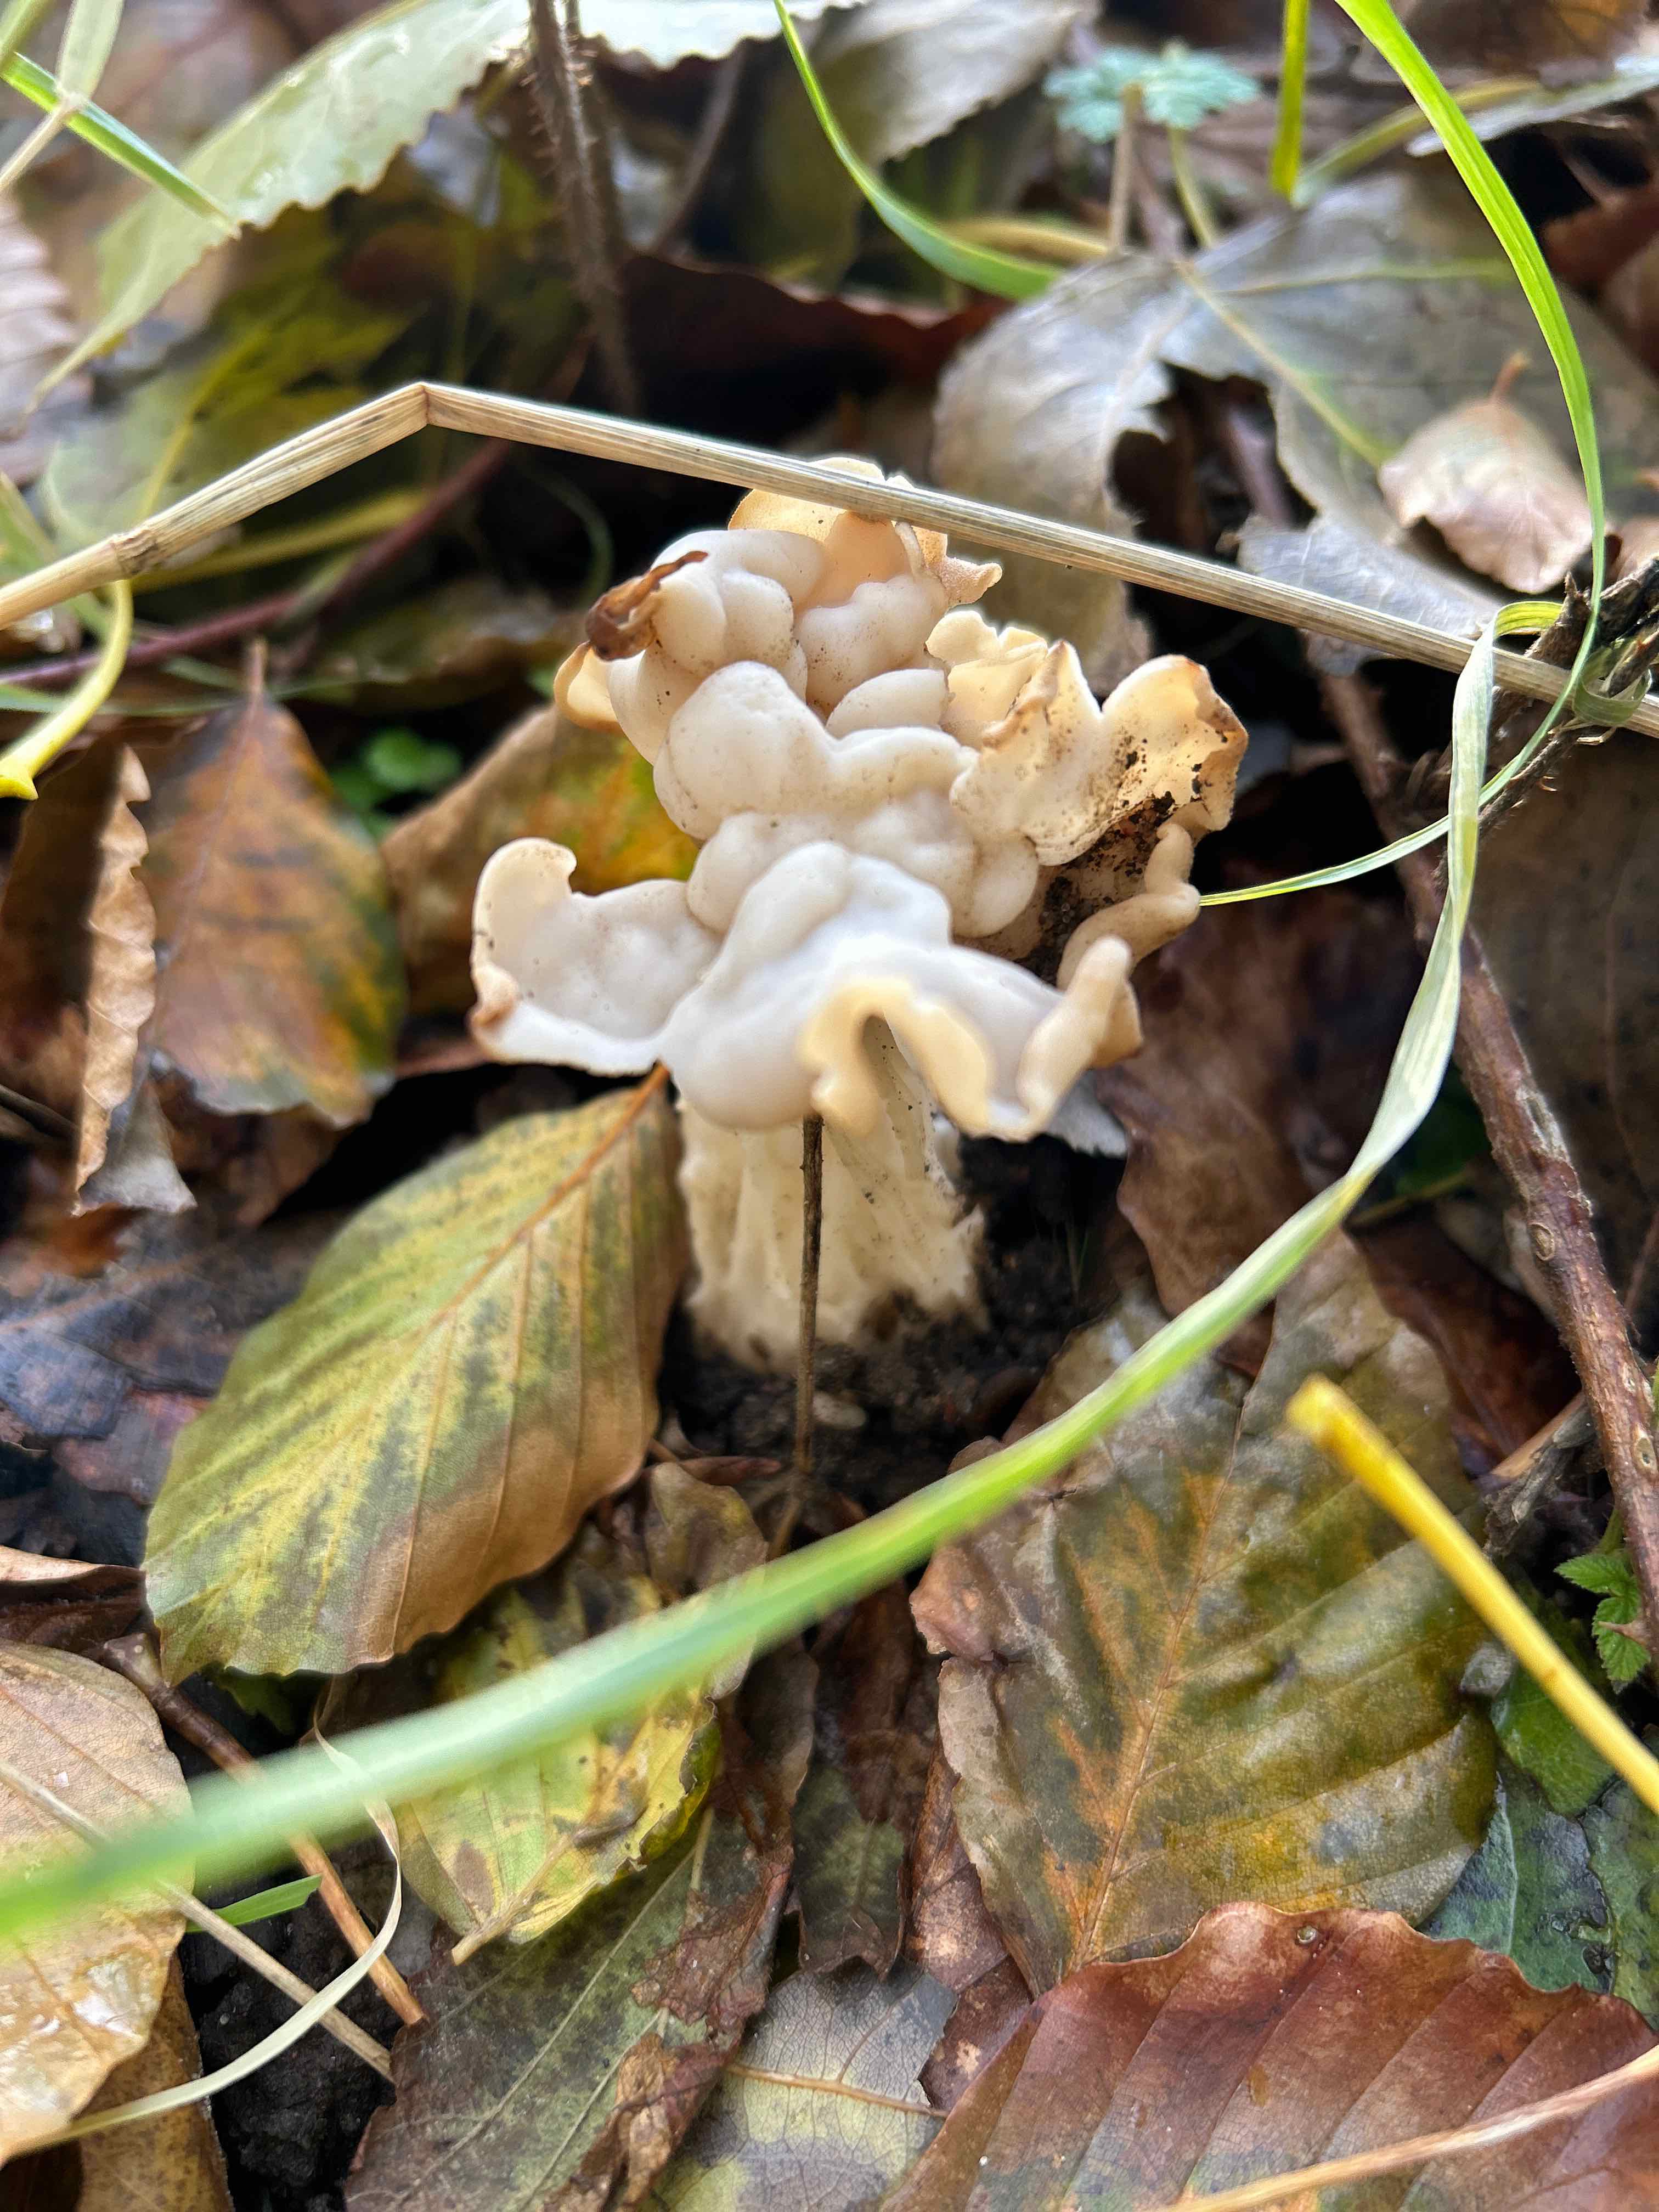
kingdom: Fungi
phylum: Ascomycota
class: Pezizomycetes
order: Pezizales
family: Helvellaceae
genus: Helvella
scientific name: Helvella crispa
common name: kruset foldhat
